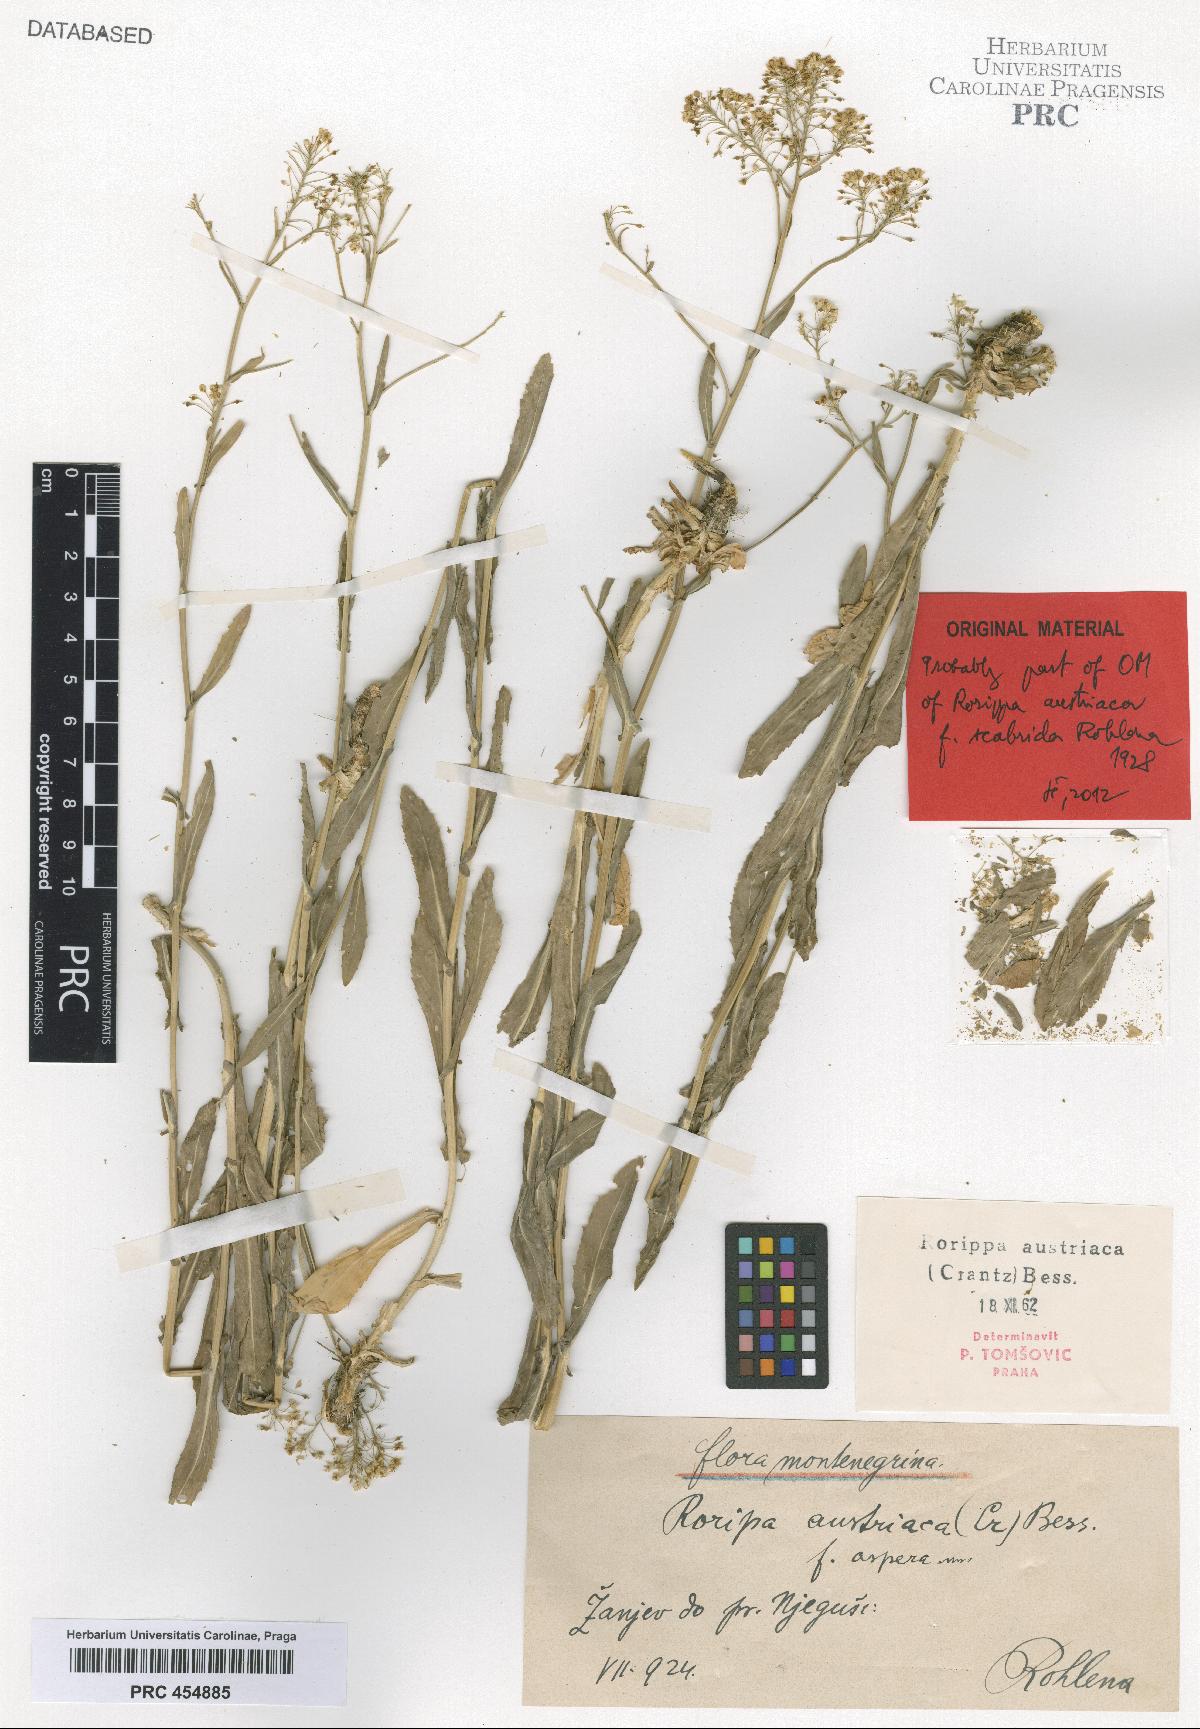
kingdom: Plantae
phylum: Tracheophyta
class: Magnoliopsida
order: Brassicales
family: Brassicaceae
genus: Rorippa
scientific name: Rorippa austriaca
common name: Austrian yellow-cress
